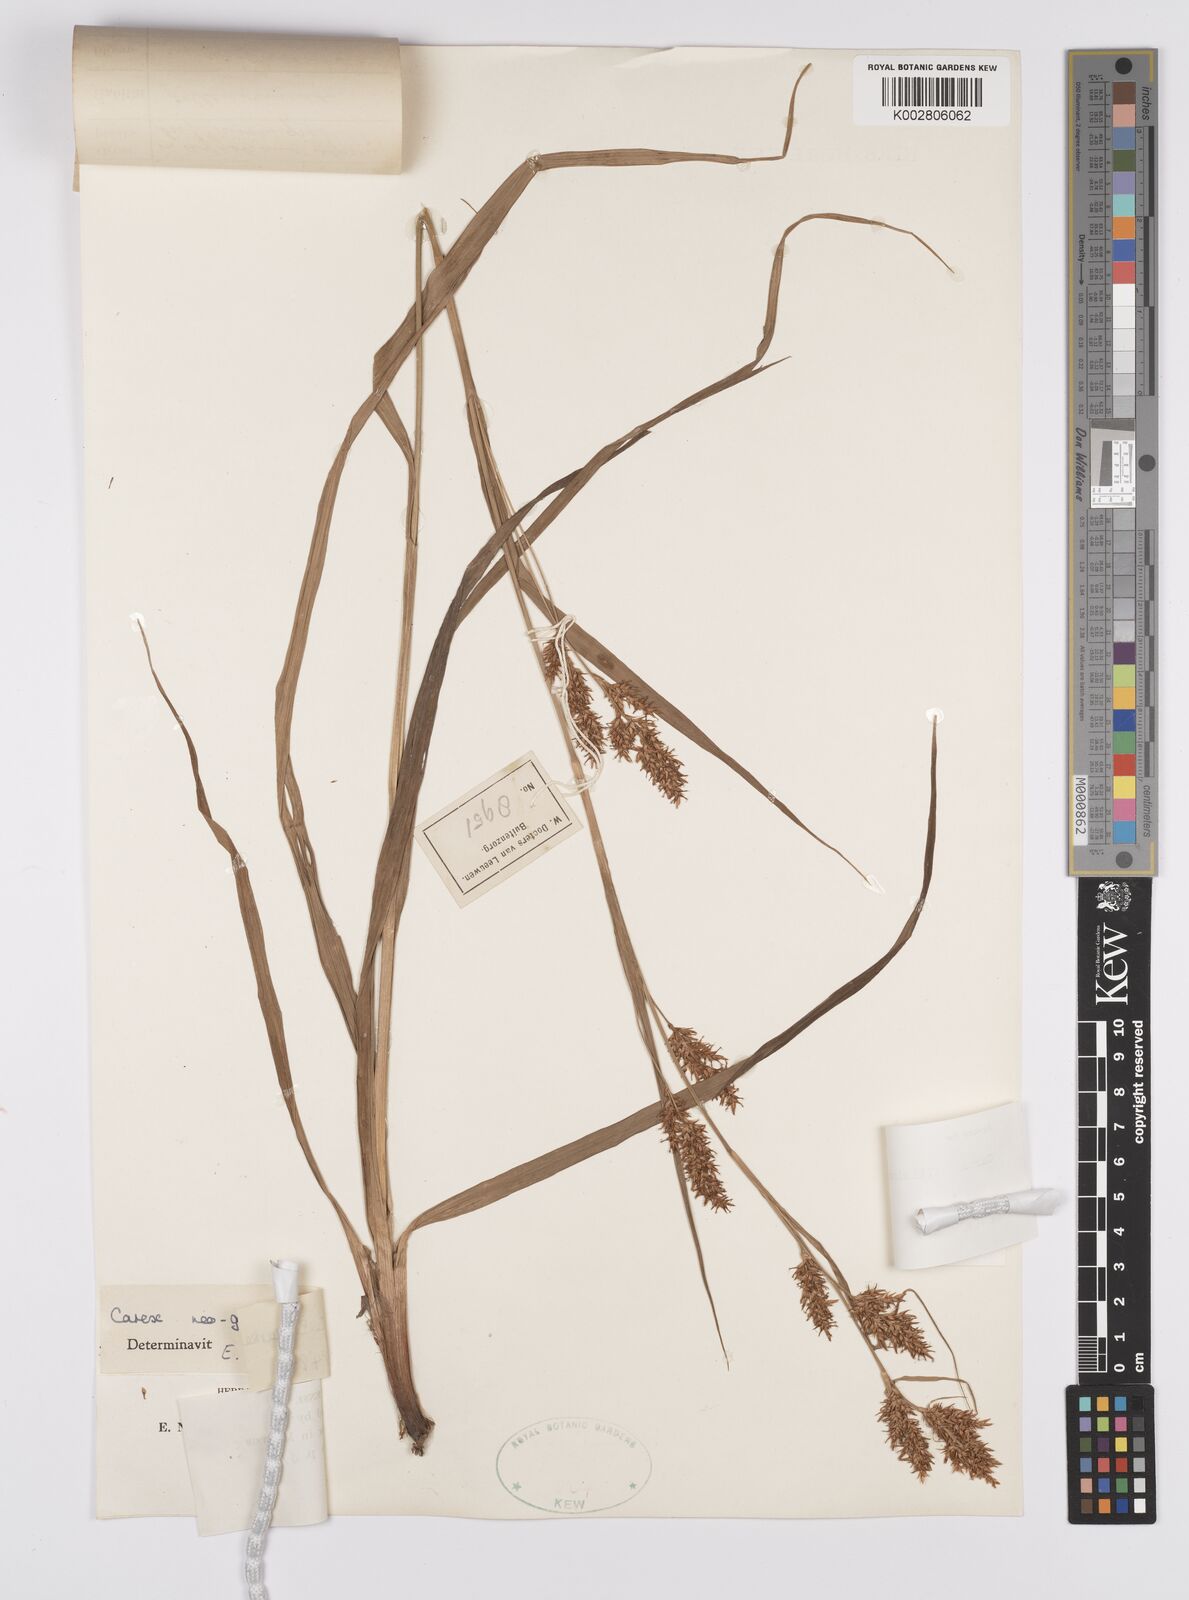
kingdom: Plantae
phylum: Tracheophyta
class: Liliopsida
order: Poales
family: Cyperaceae
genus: Carex
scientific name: Carex filicina
